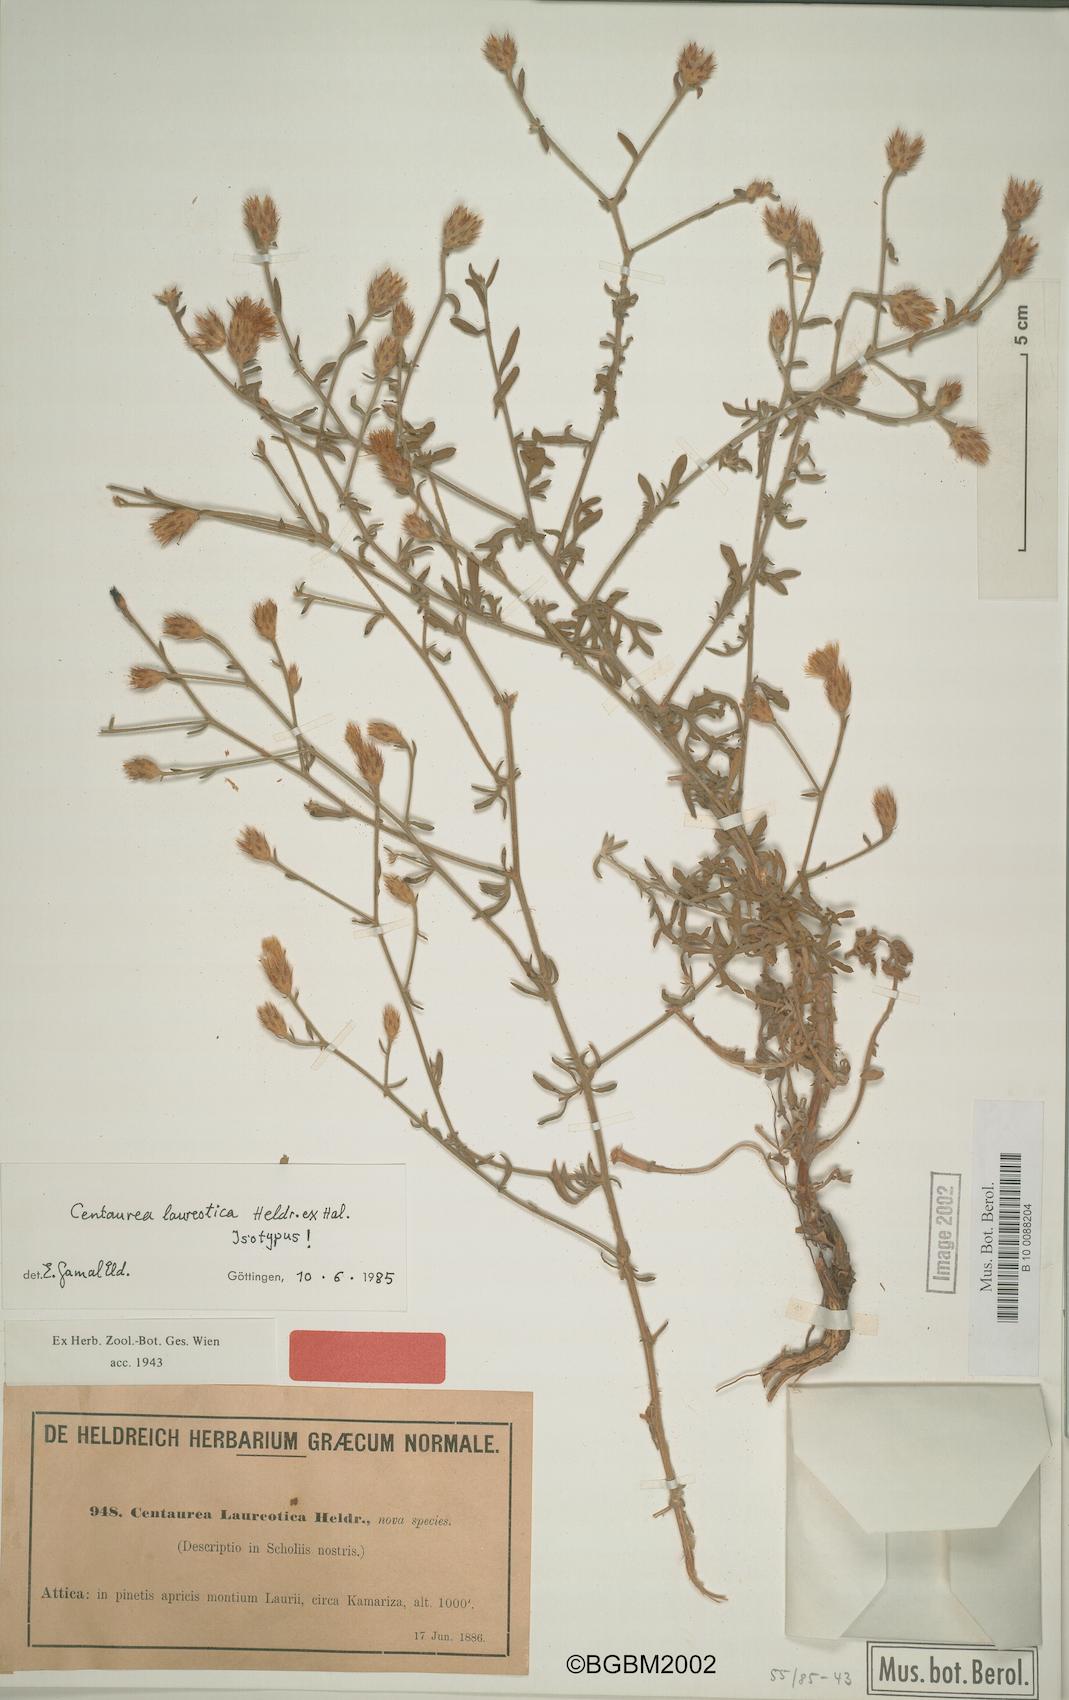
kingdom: Plantae
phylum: Tracheophyta
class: Magnoliopsida
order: Asterales
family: Asteraceae
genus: Centaurea
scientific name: Centaurea laureotica
